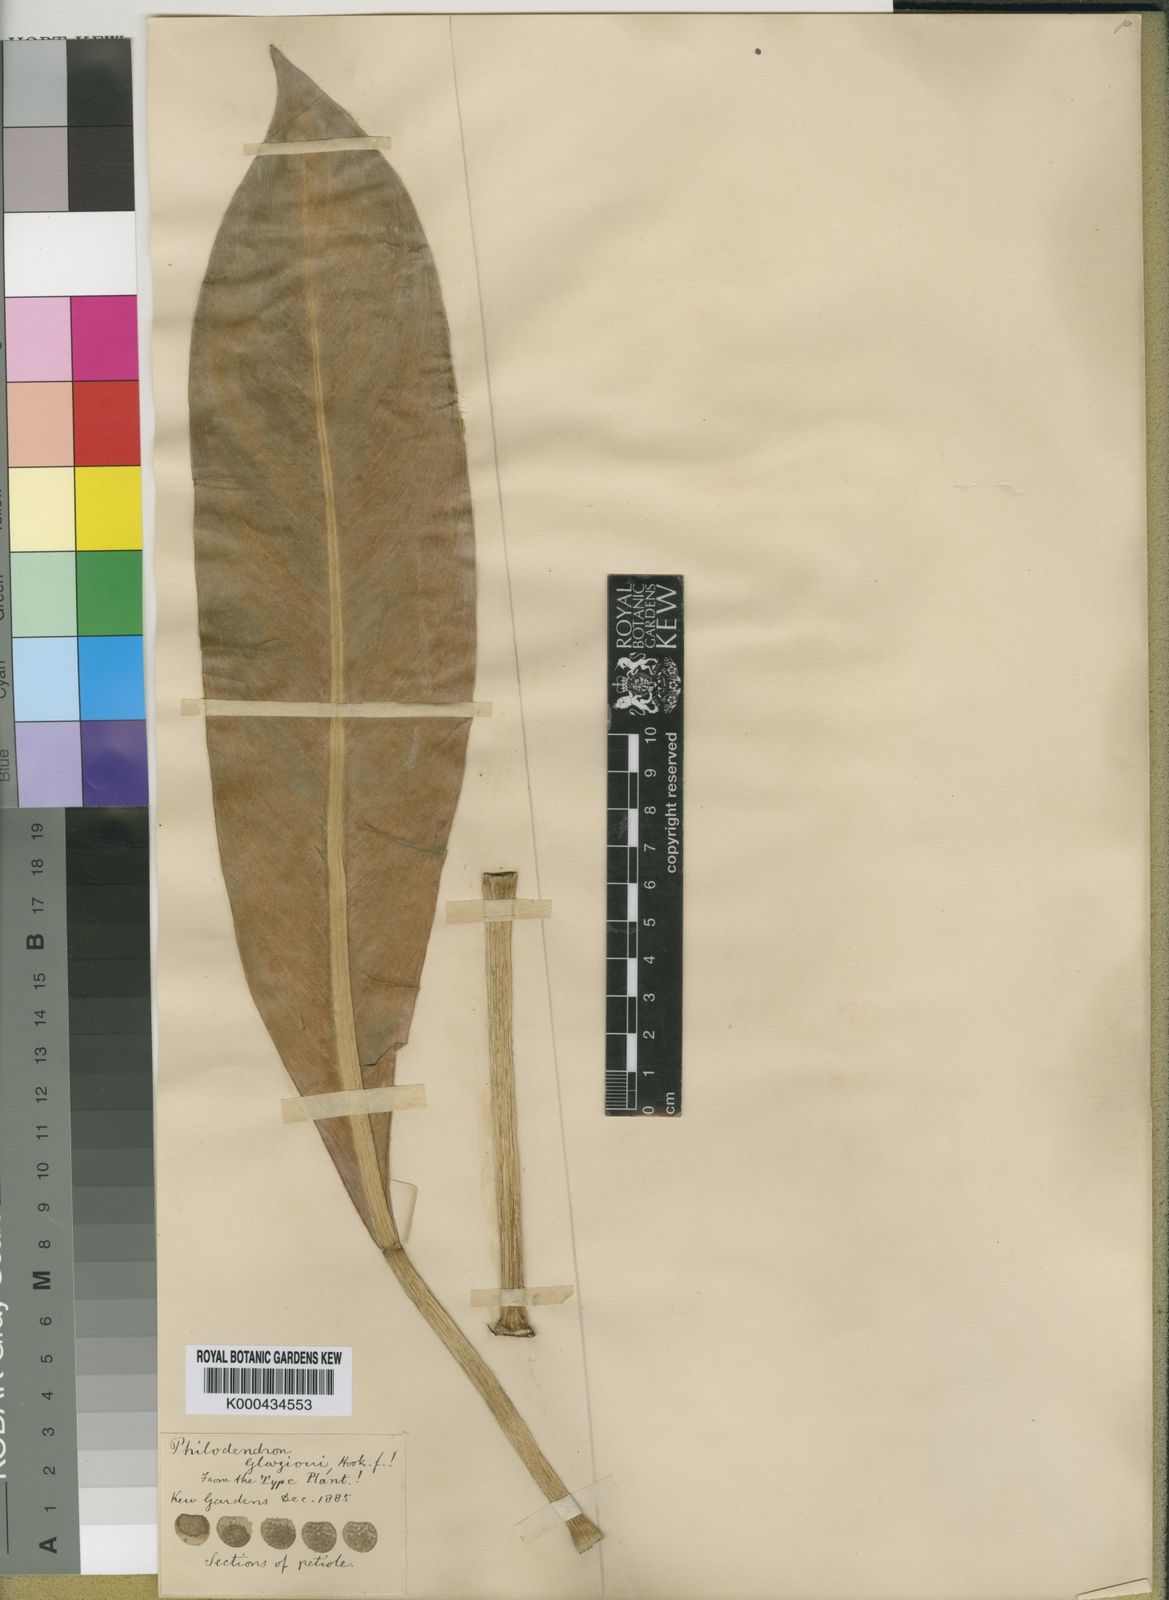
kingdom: Plantae
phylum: Tracheophyta
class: Liliopsida
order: Alismatales
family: Araceae
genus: Philodendron
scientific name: Philodendron glaziovii
